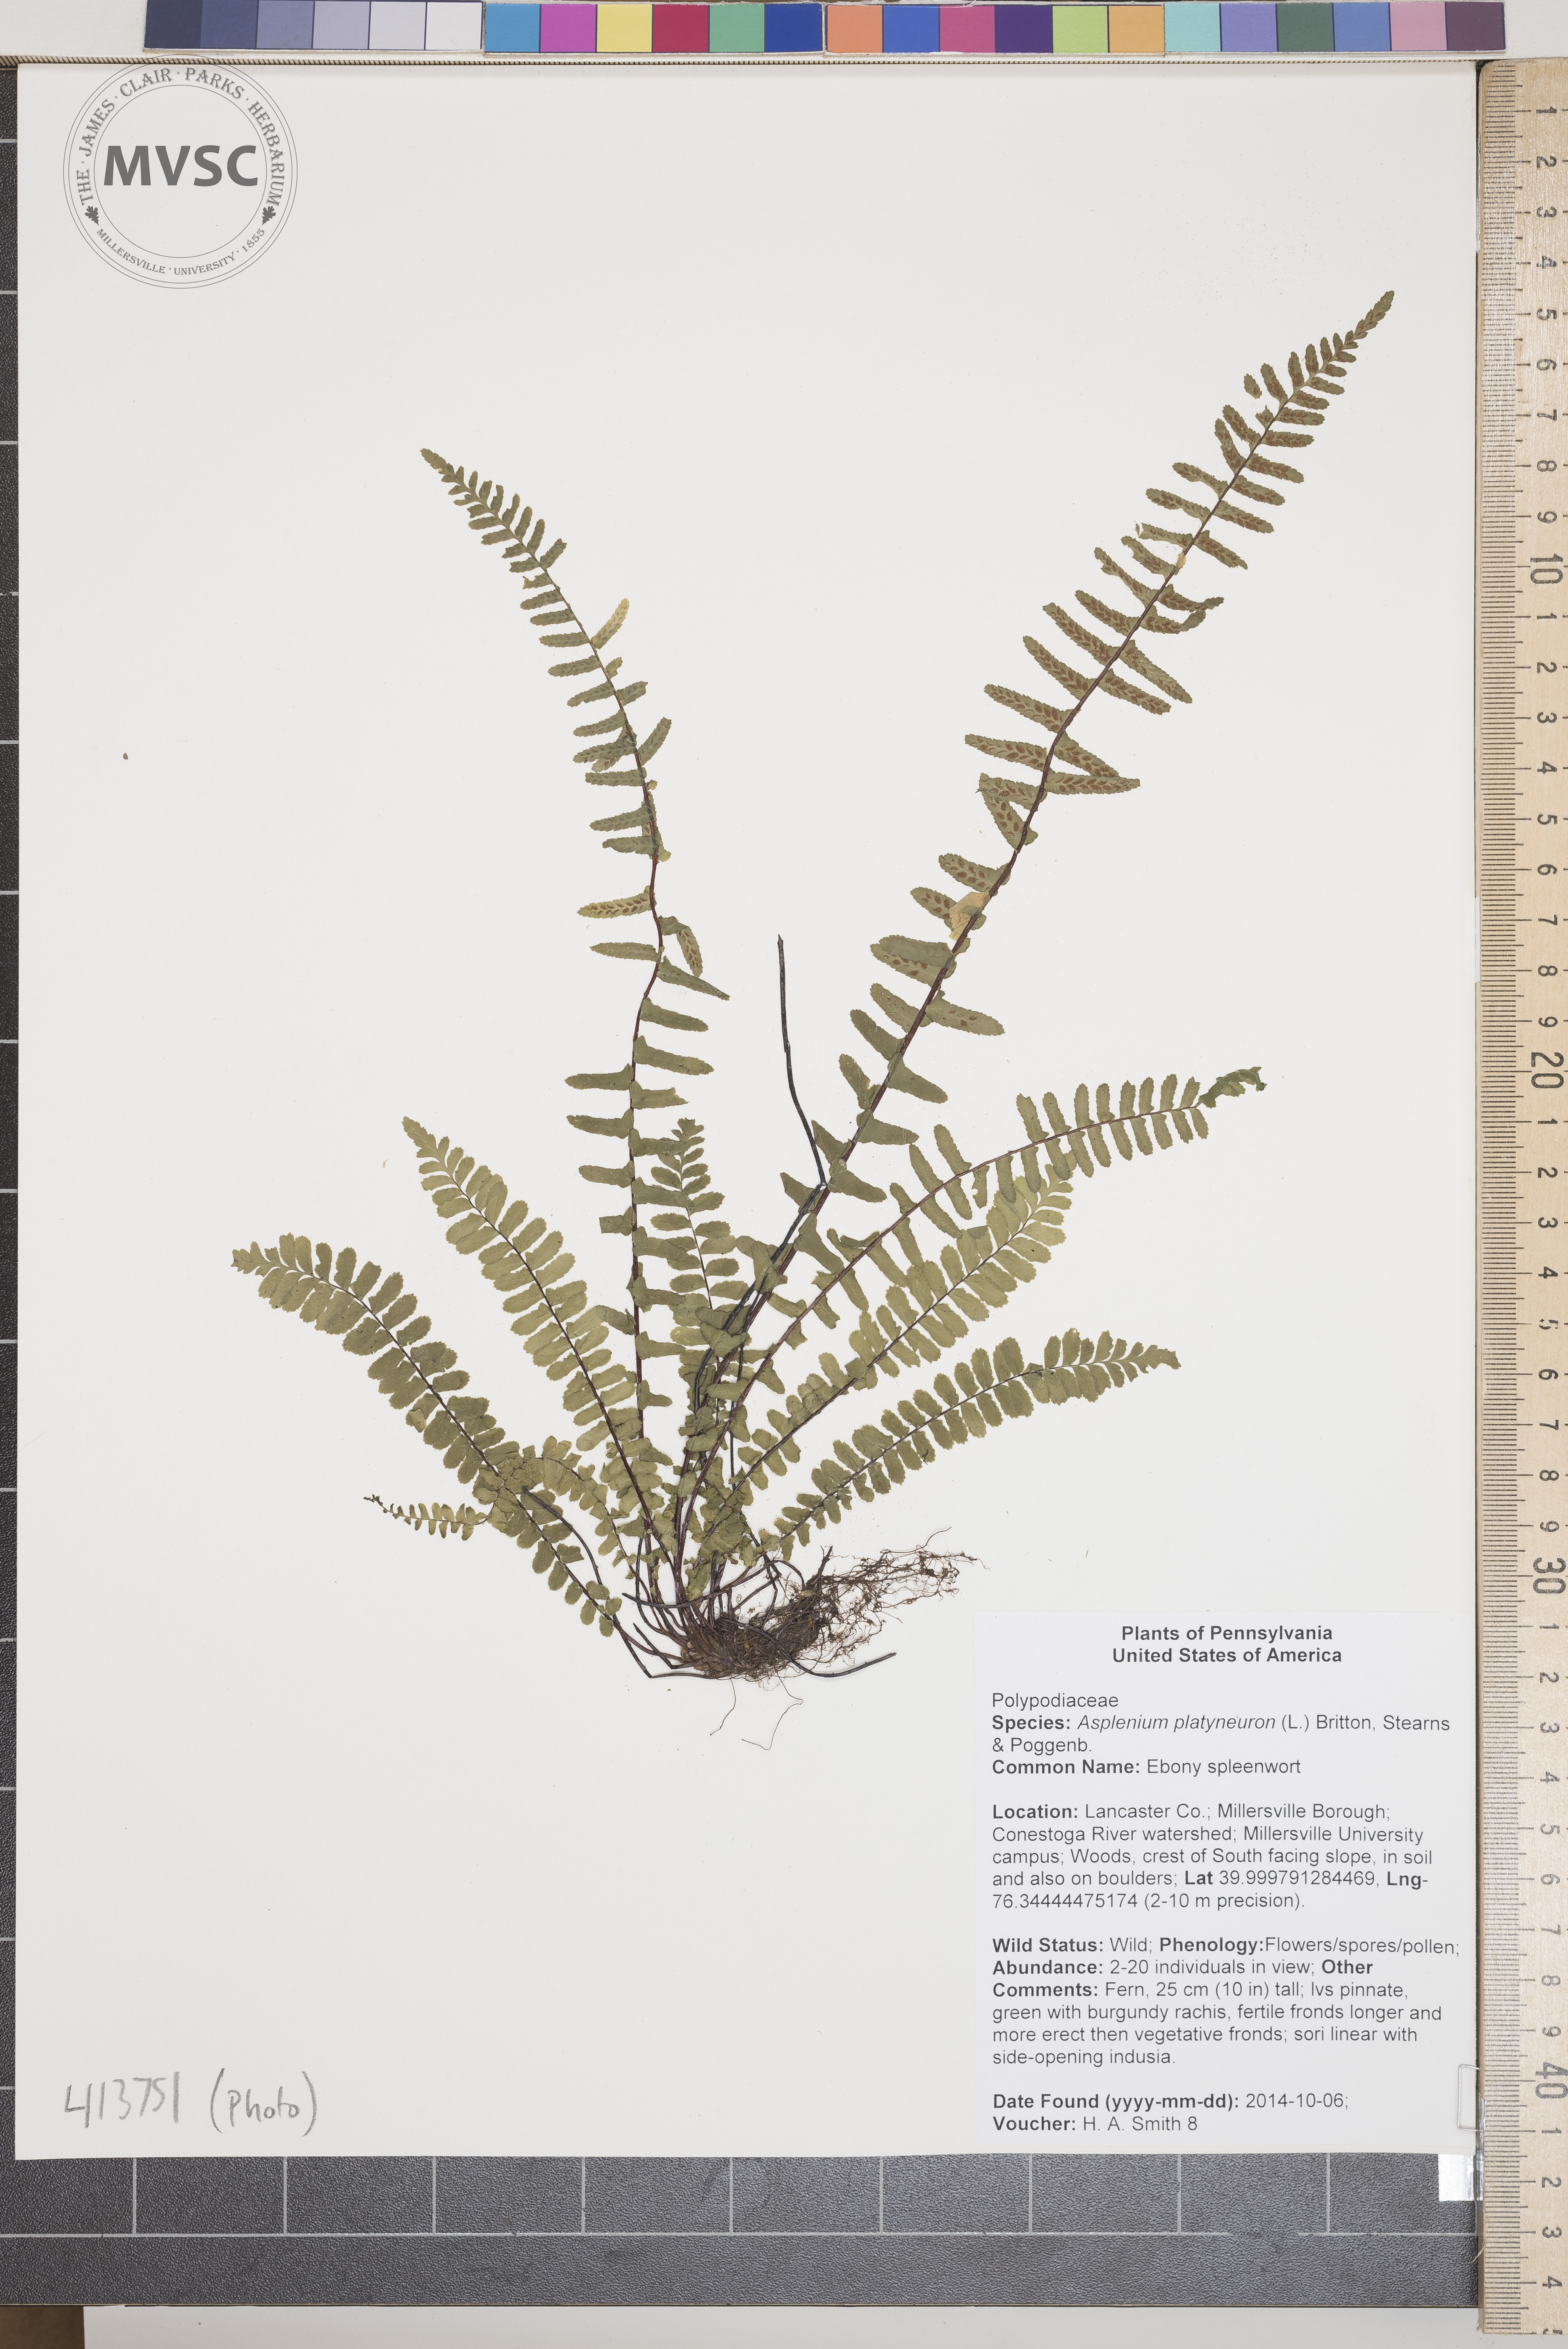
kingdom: Plantae
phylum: Tracheophyta
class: Polypodiopsida
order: Polypodiales
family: Aspleniaceae
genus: Asplenium
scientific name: Asplenium platyneuron
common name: Ebony spleenwort
